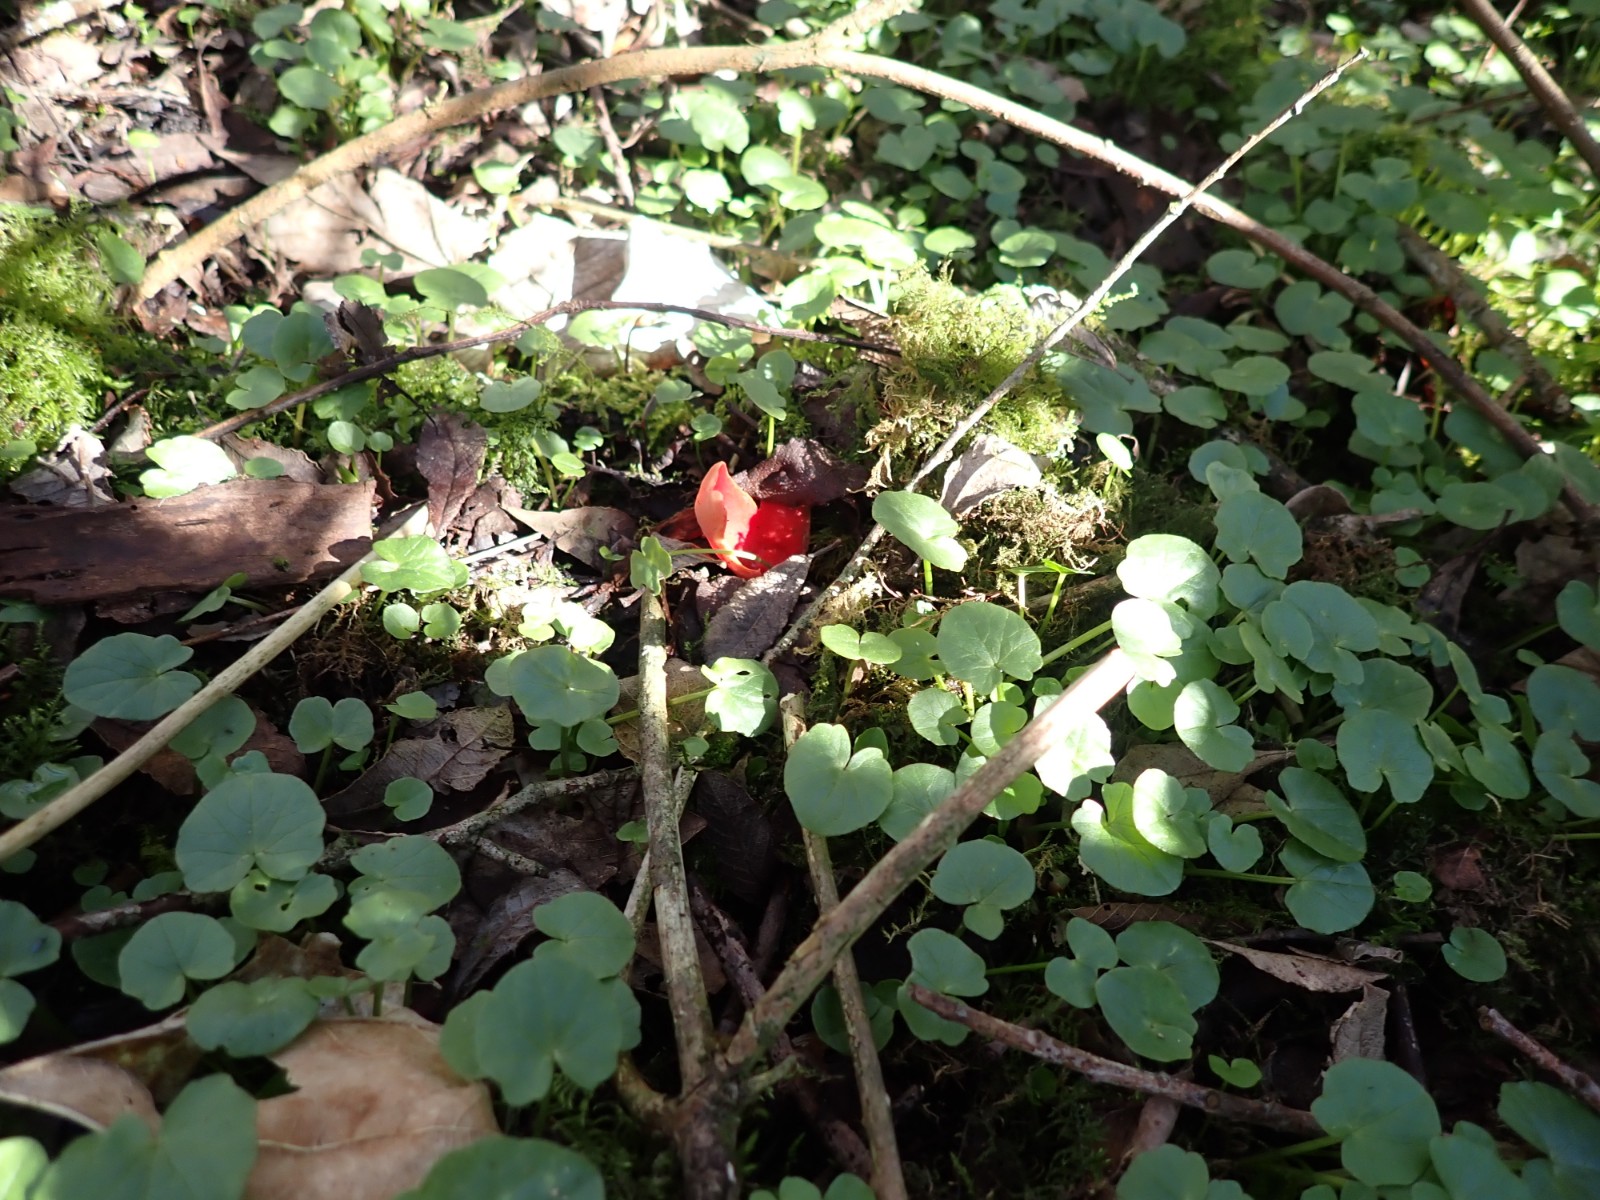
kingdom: Fungi
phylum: Ascomycota
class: Pezizomycetes
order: Pezizales
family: Sarcoscyphaceae
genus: Sarcoscypha
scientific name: Sarcoscypha austriaca
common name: krølhåret pragtbæger
